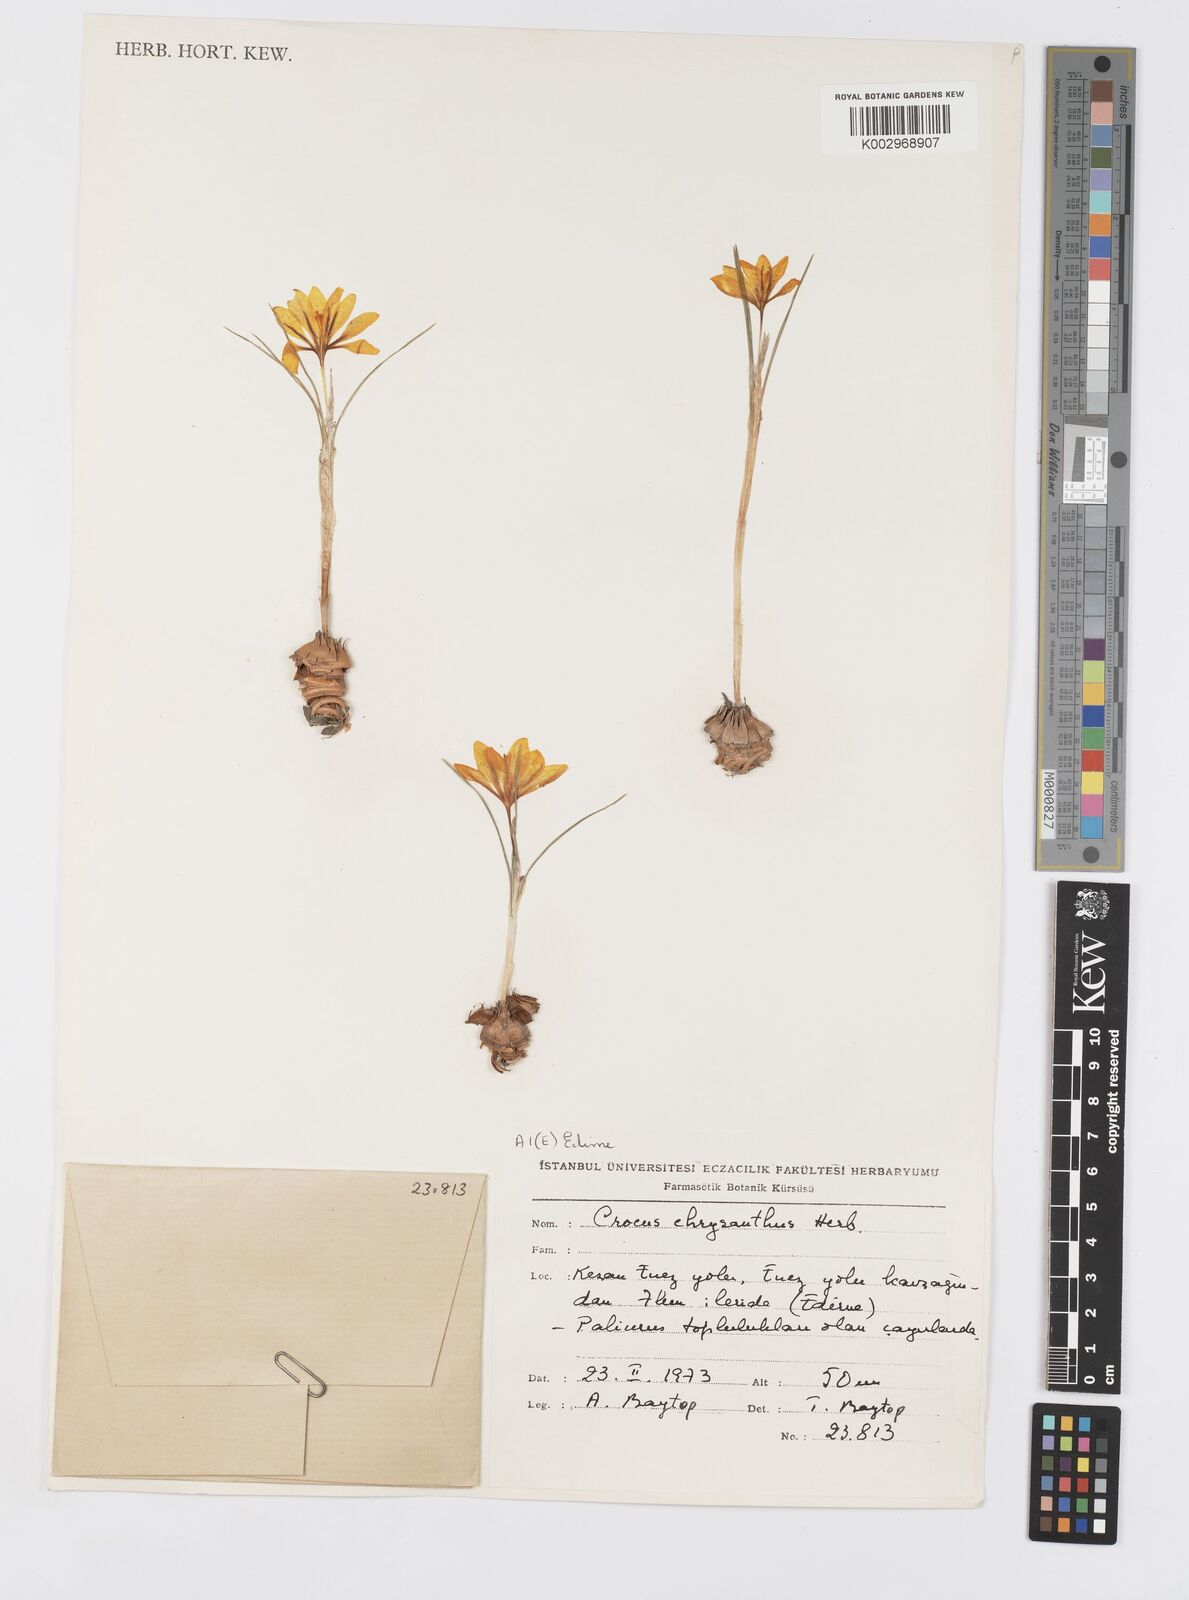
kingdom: Plantae
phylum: Tracheophyta
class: Liliopsida
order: Asparagales
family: Iridaceae
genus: Crocus
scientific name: Crocus chrysanthus
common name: Golden crocus
